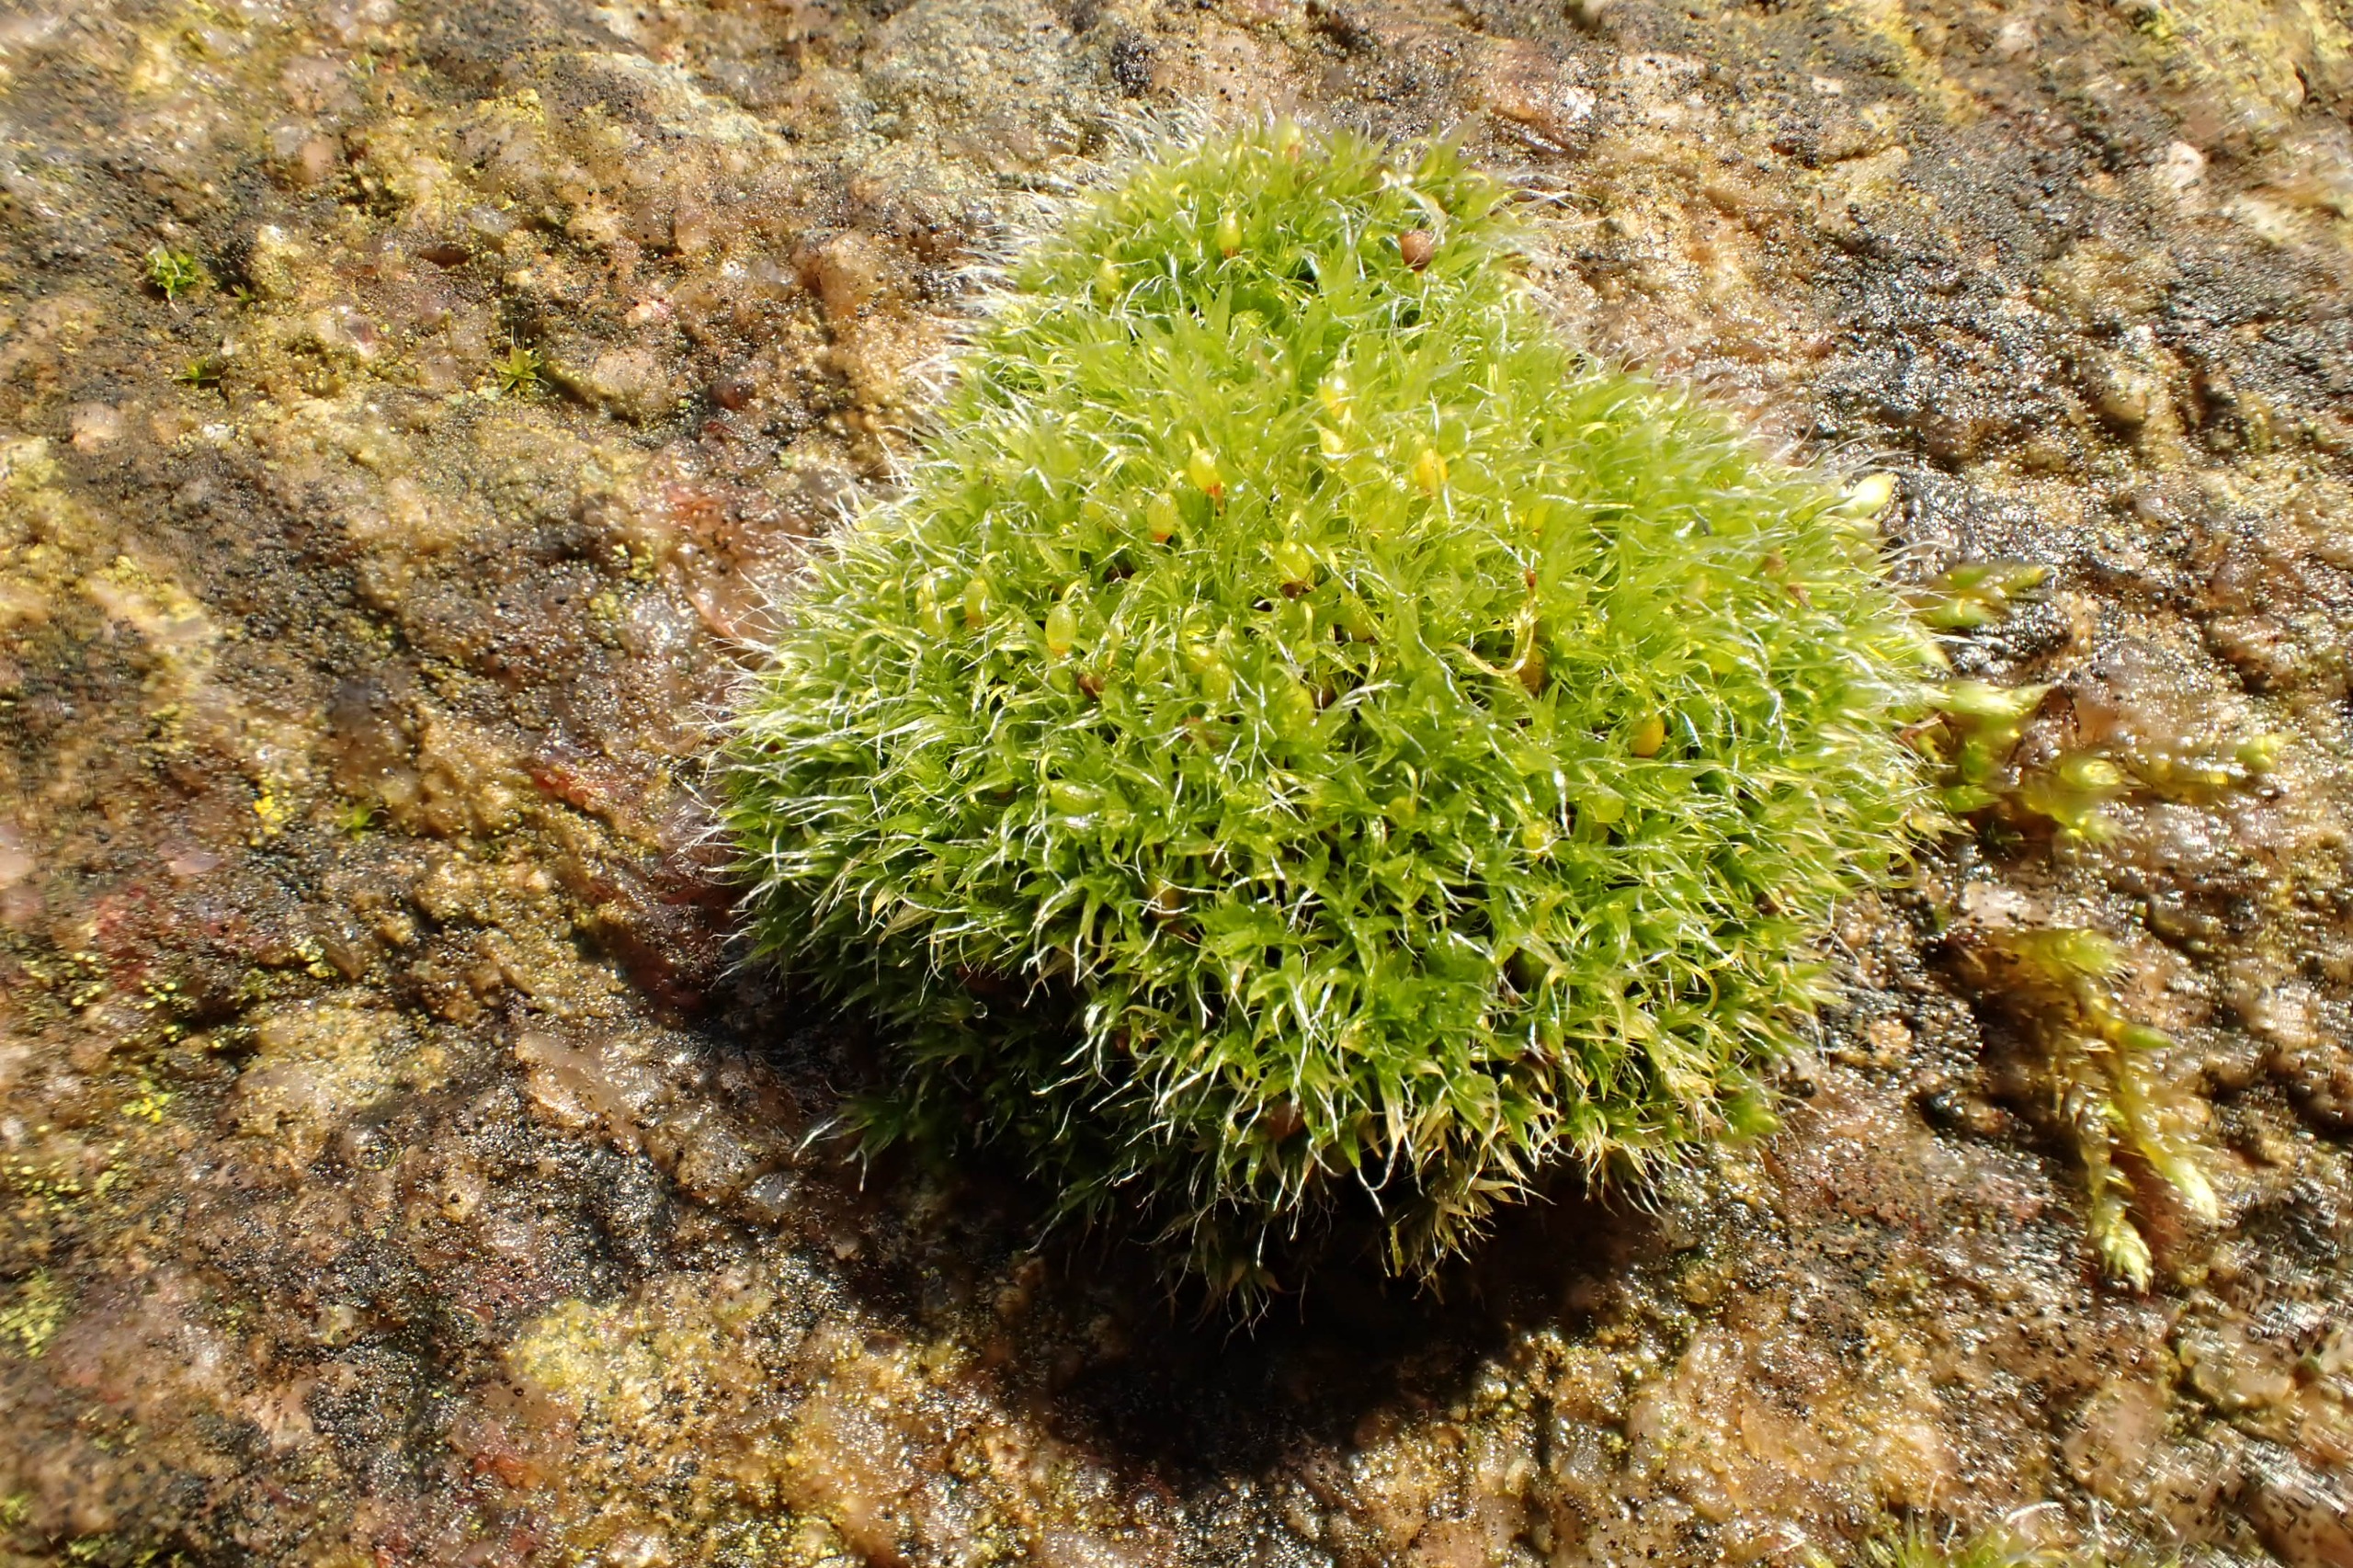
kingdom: Plantae
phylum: Bryophyta
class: Bryopsida
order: Grimmiales
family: Grimmiaceae
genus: Grimmia
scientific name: Grimmia pulvinata
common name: Pude-gråmos
